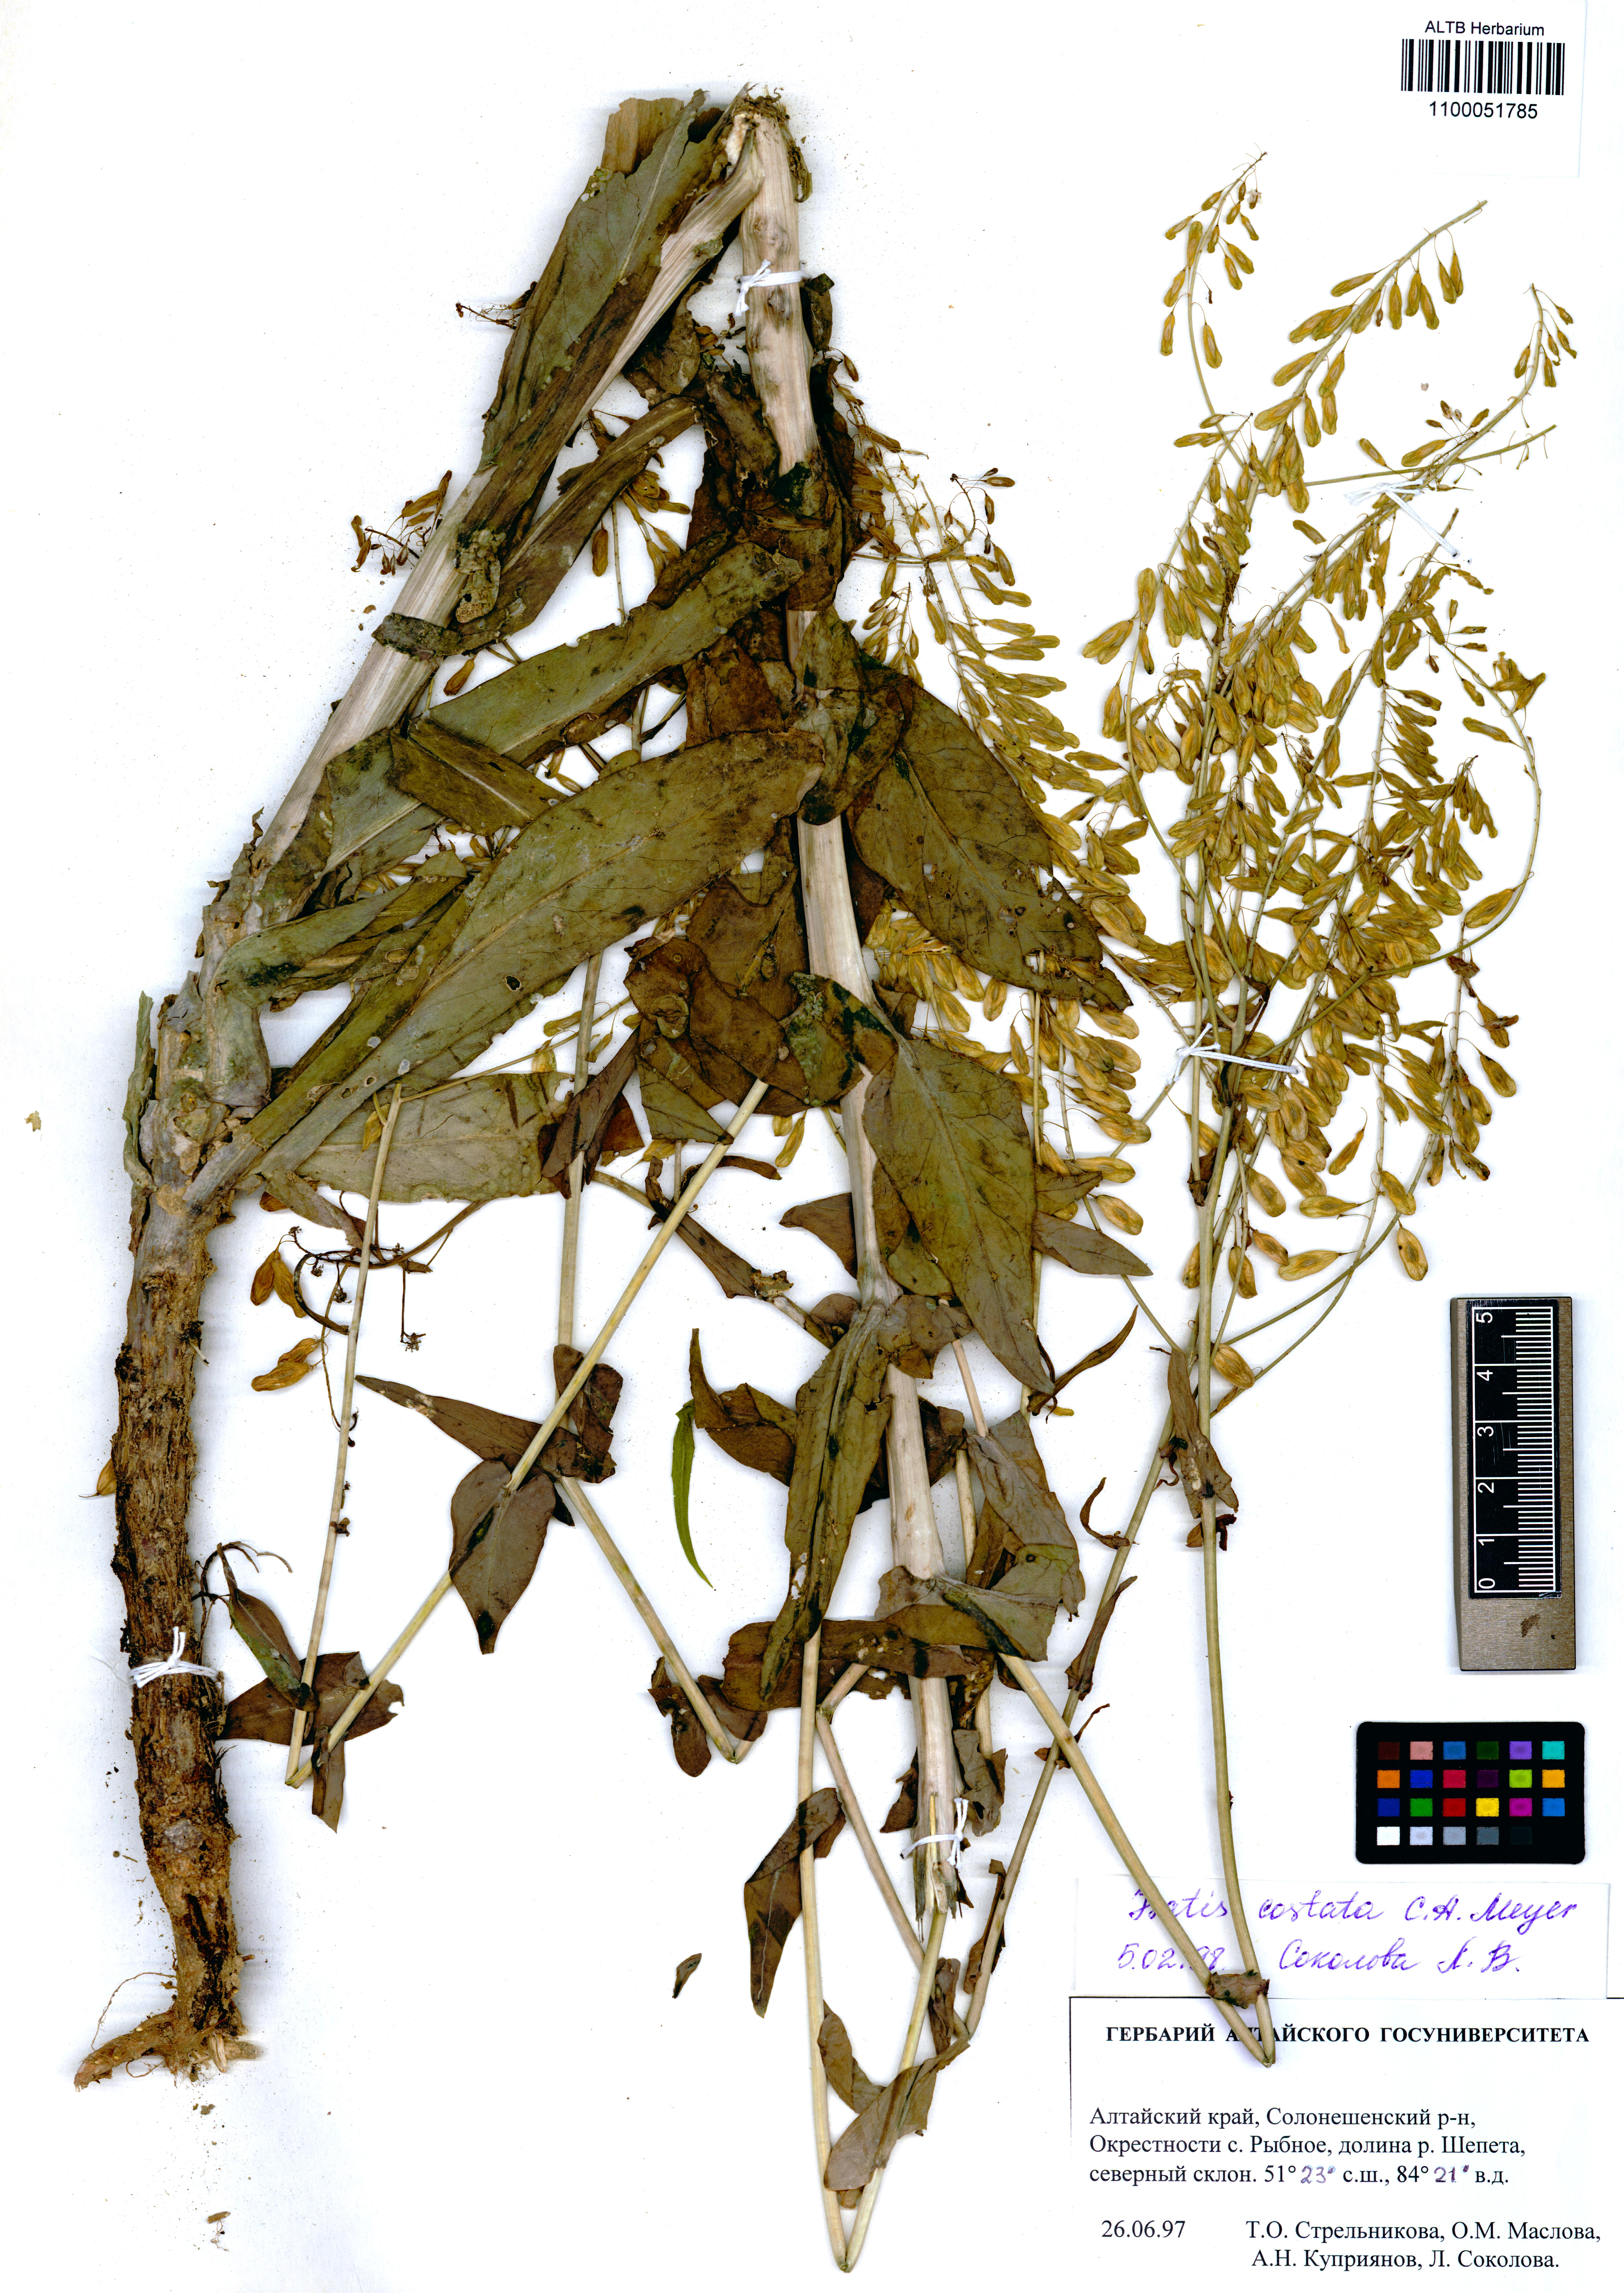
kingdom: Plantae
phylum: Tracheophyta
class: Magnoliopsida
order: Brassicales
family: Brassicaceae
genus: Isatis
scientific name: Isatis costata
